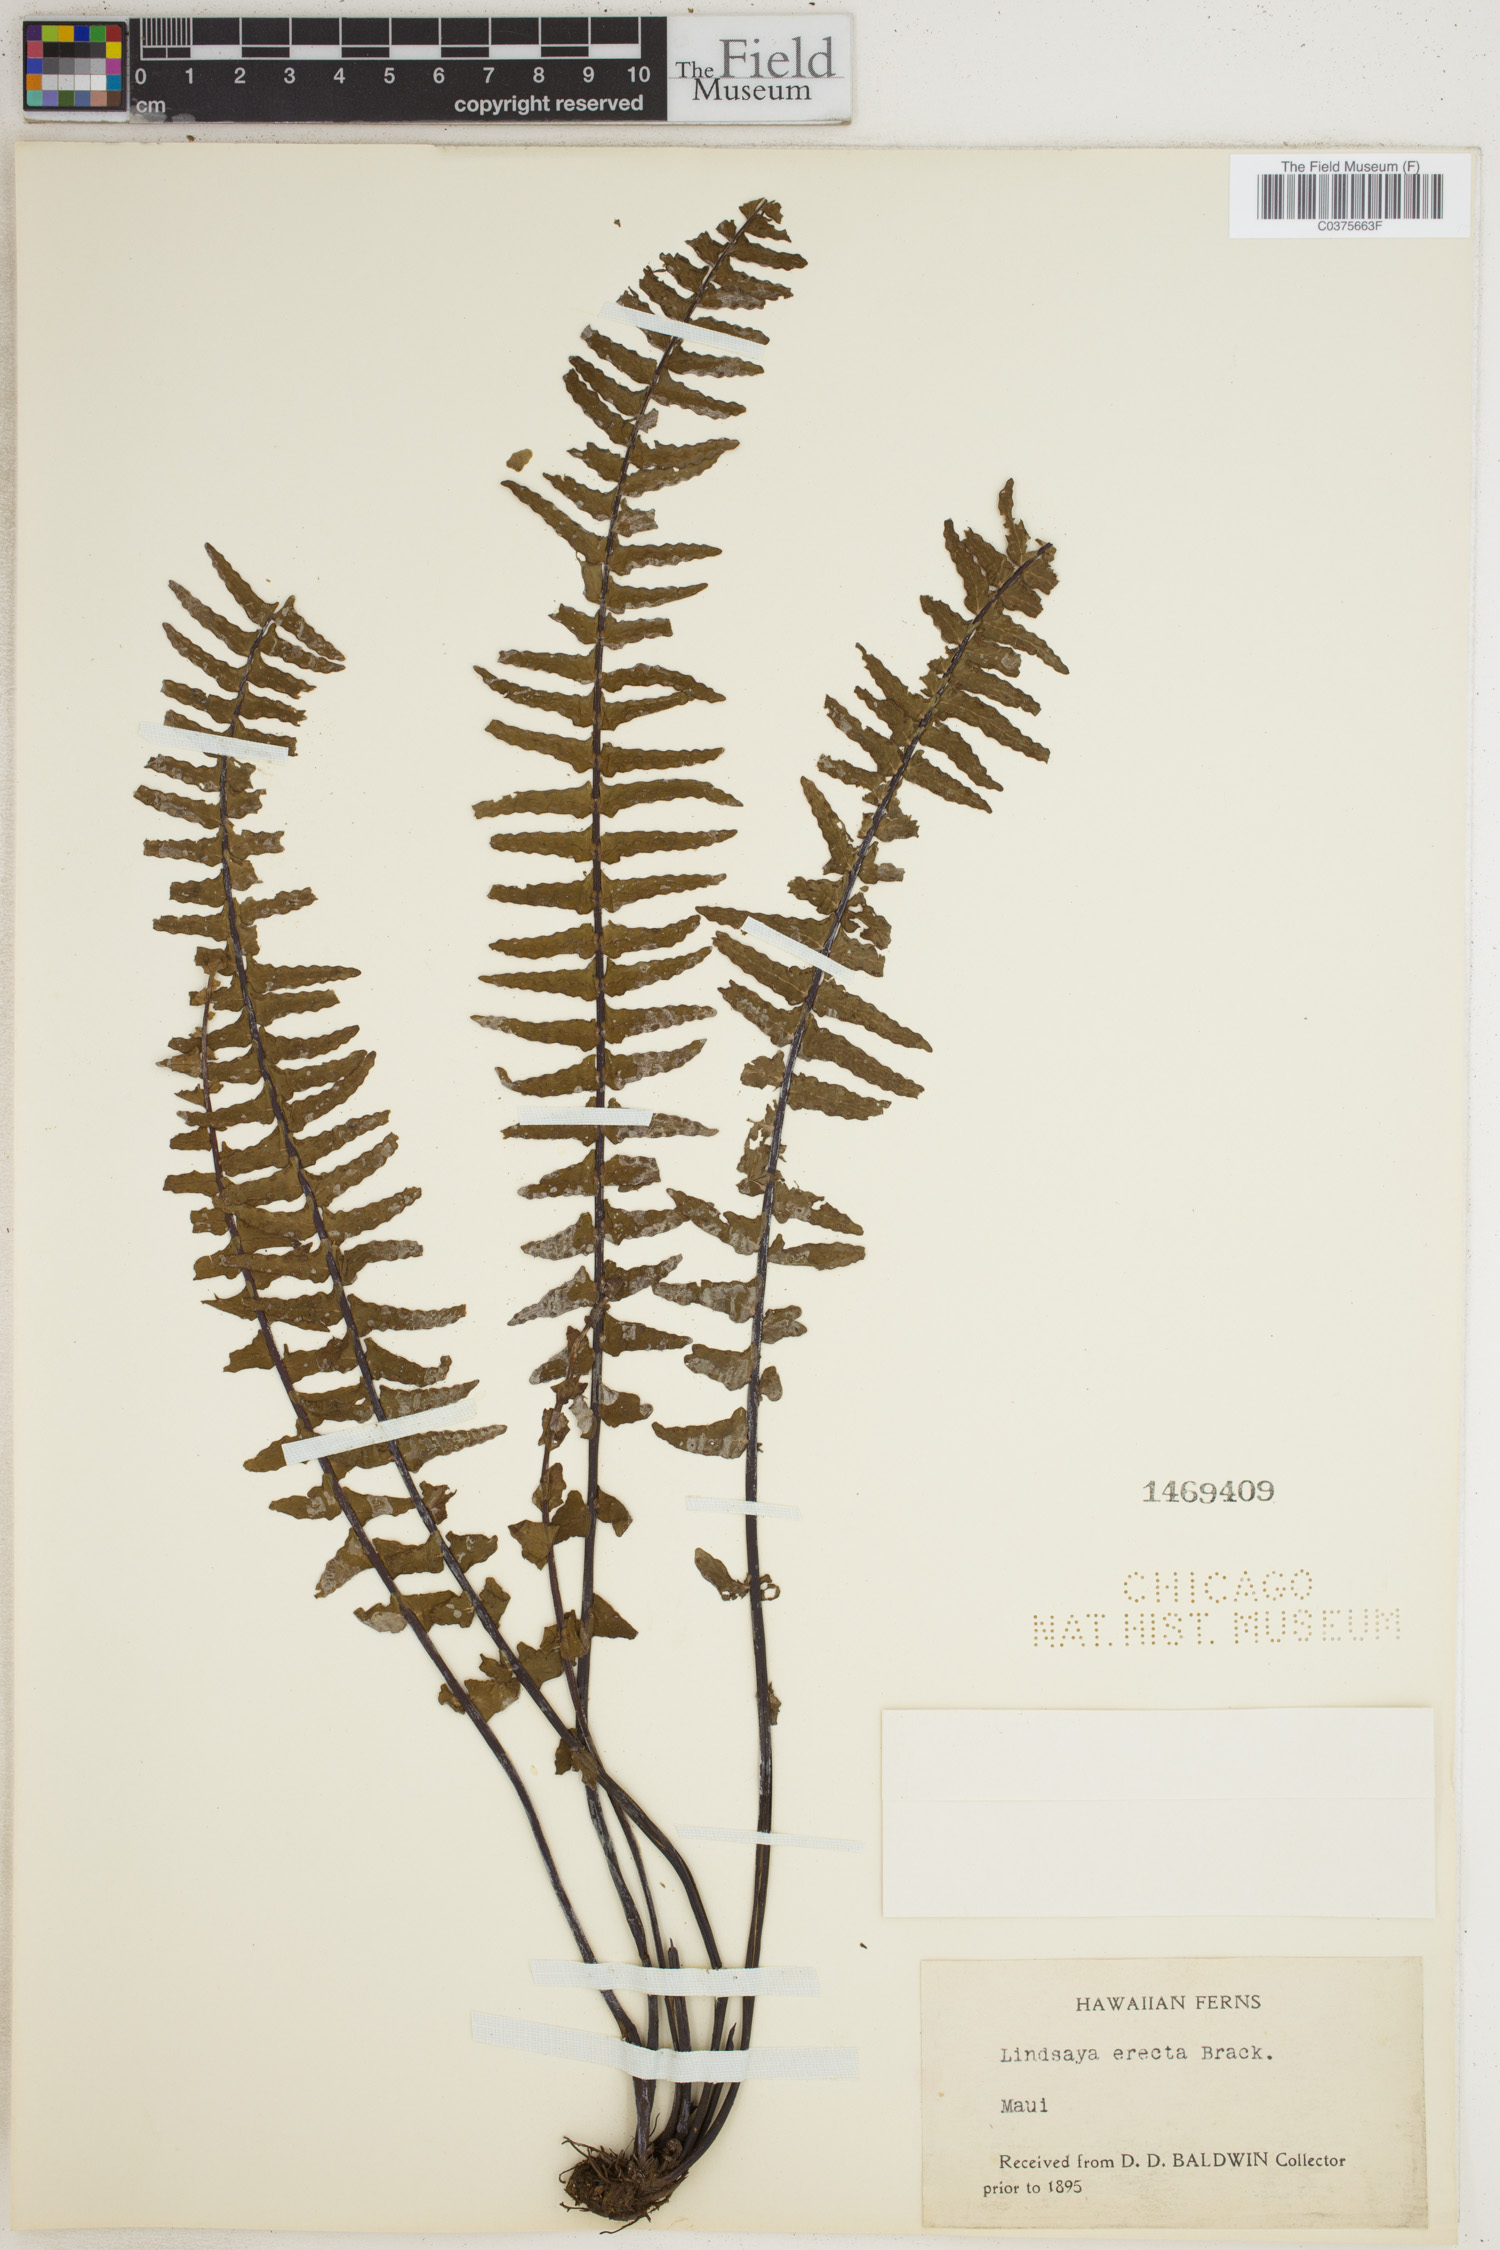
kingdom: Plantae
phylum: Tracheophyta
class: Polypodiopsida
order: Polypodiales
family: Lindsaeaceae
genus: Lindsaea
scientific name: Lindsaea ensifolia
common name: Graceful necklace fern
